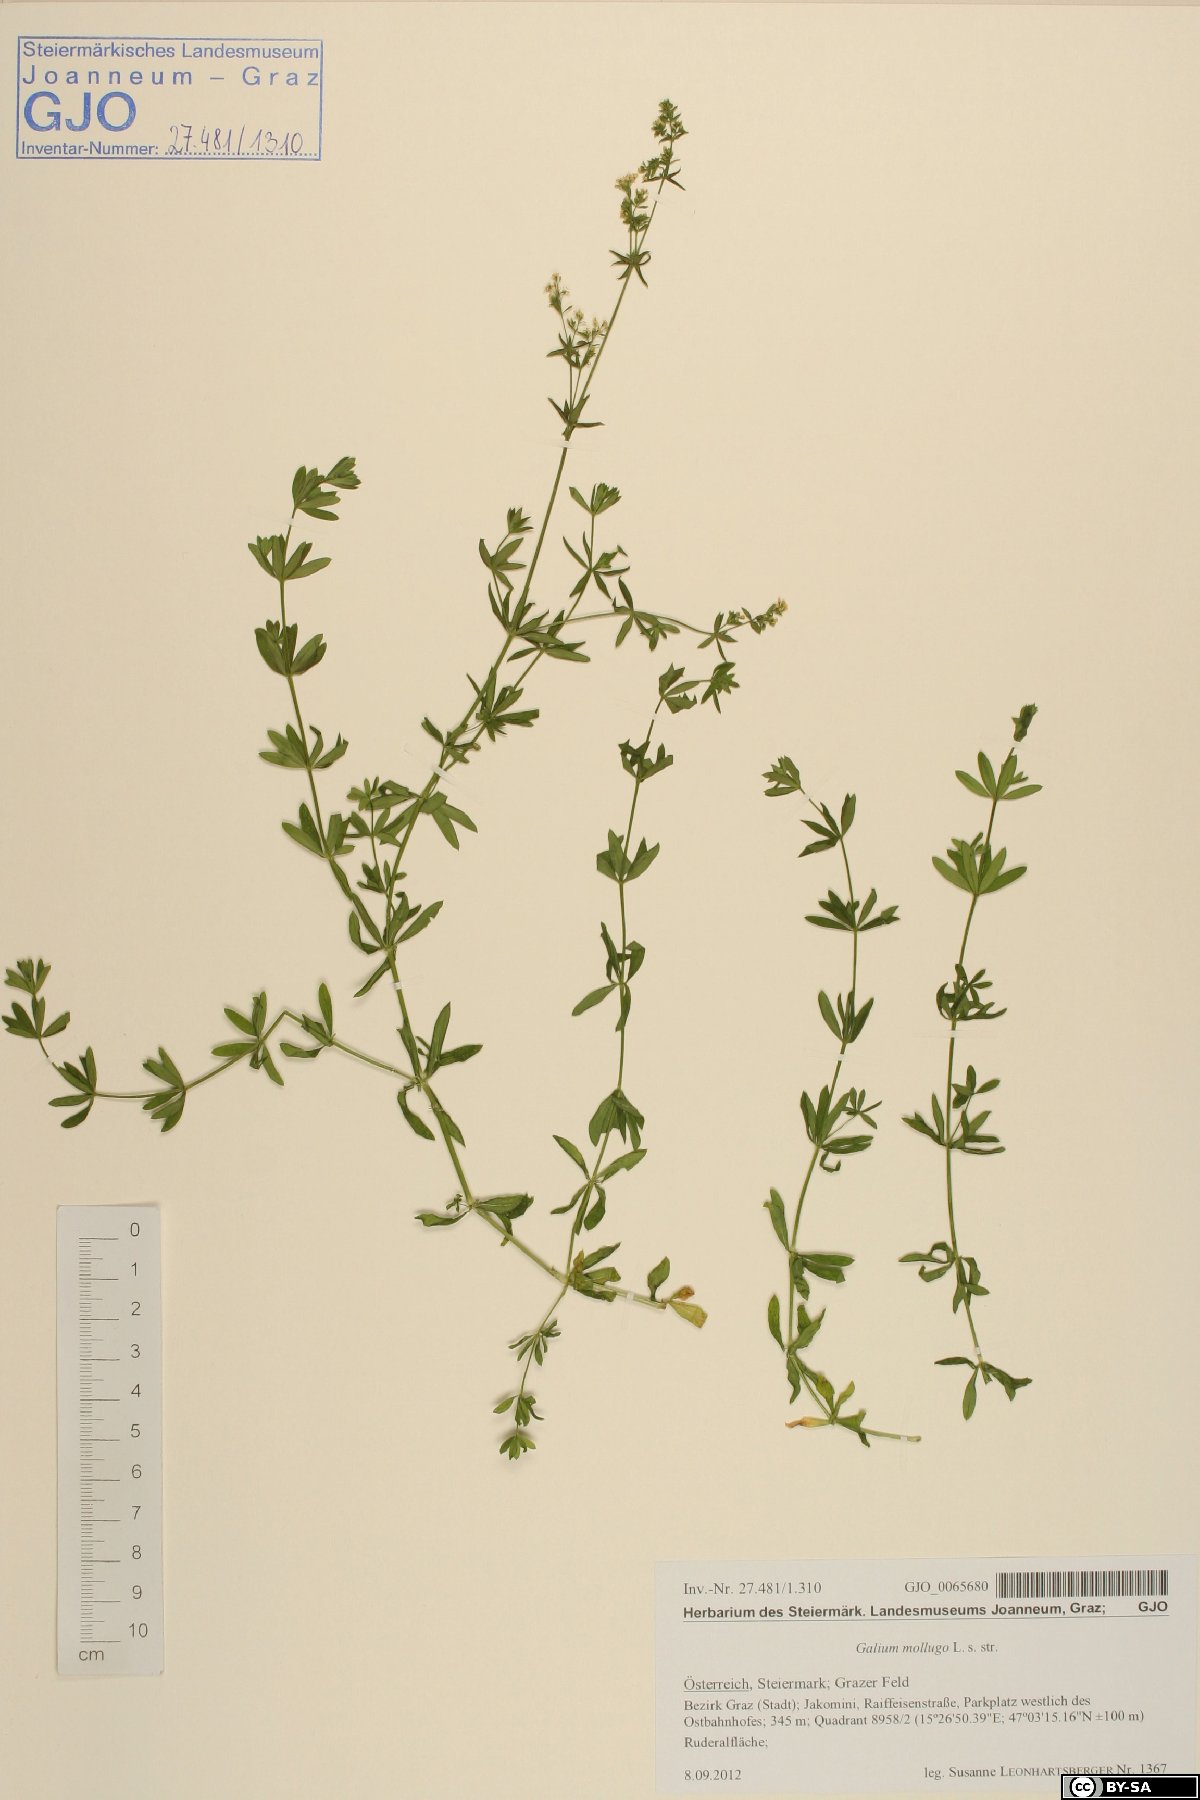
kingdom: Plantae
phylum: Tracheophyta
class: Magnoliopsida
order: Gentianales
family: Rubiaceae
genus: Galium
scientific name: Galium mollugo
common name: Hedge bedstraw
